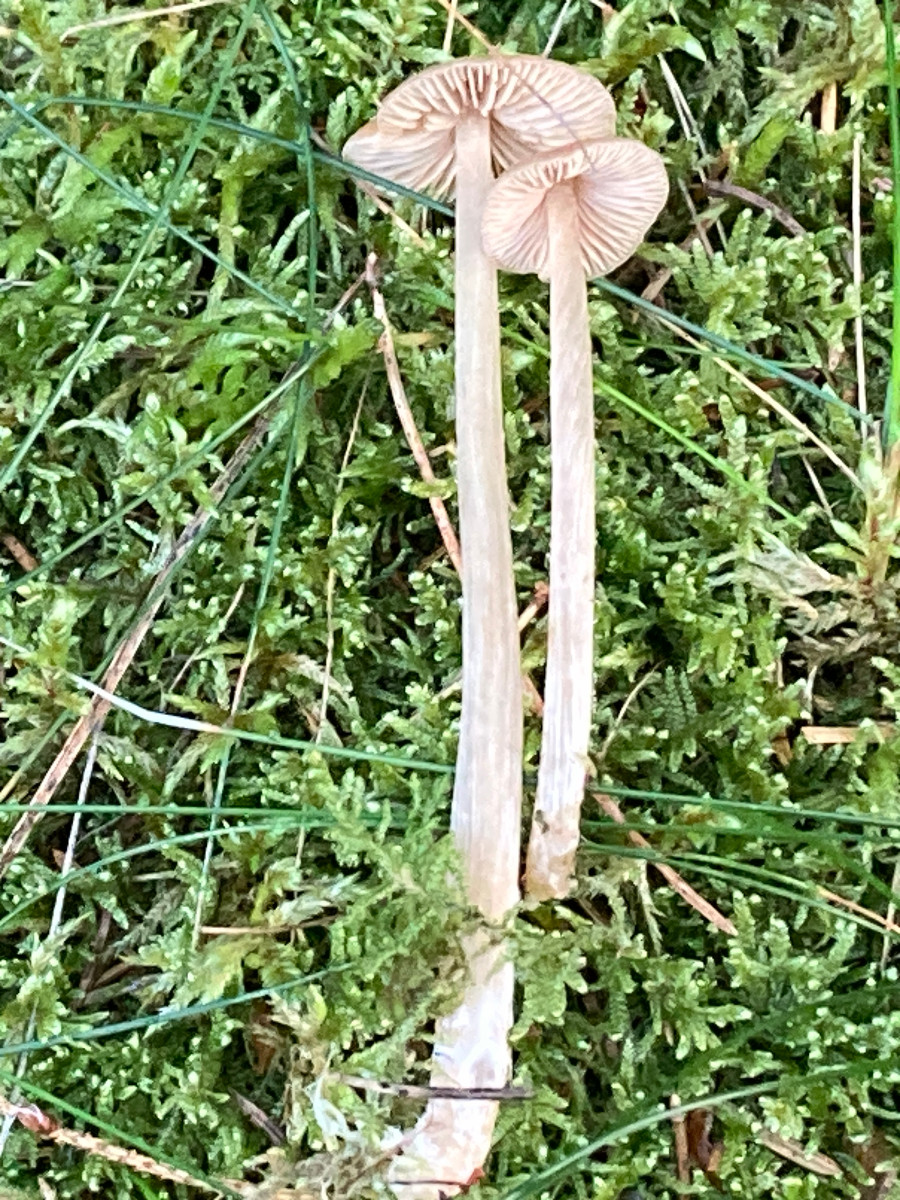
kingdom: Fungi
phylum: Basidiomycota
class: Agaricomycetes
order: Agaricales
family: Entolomataceae
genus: Entoloma
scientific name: Entoloma cetratum
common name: voks-rødblad
